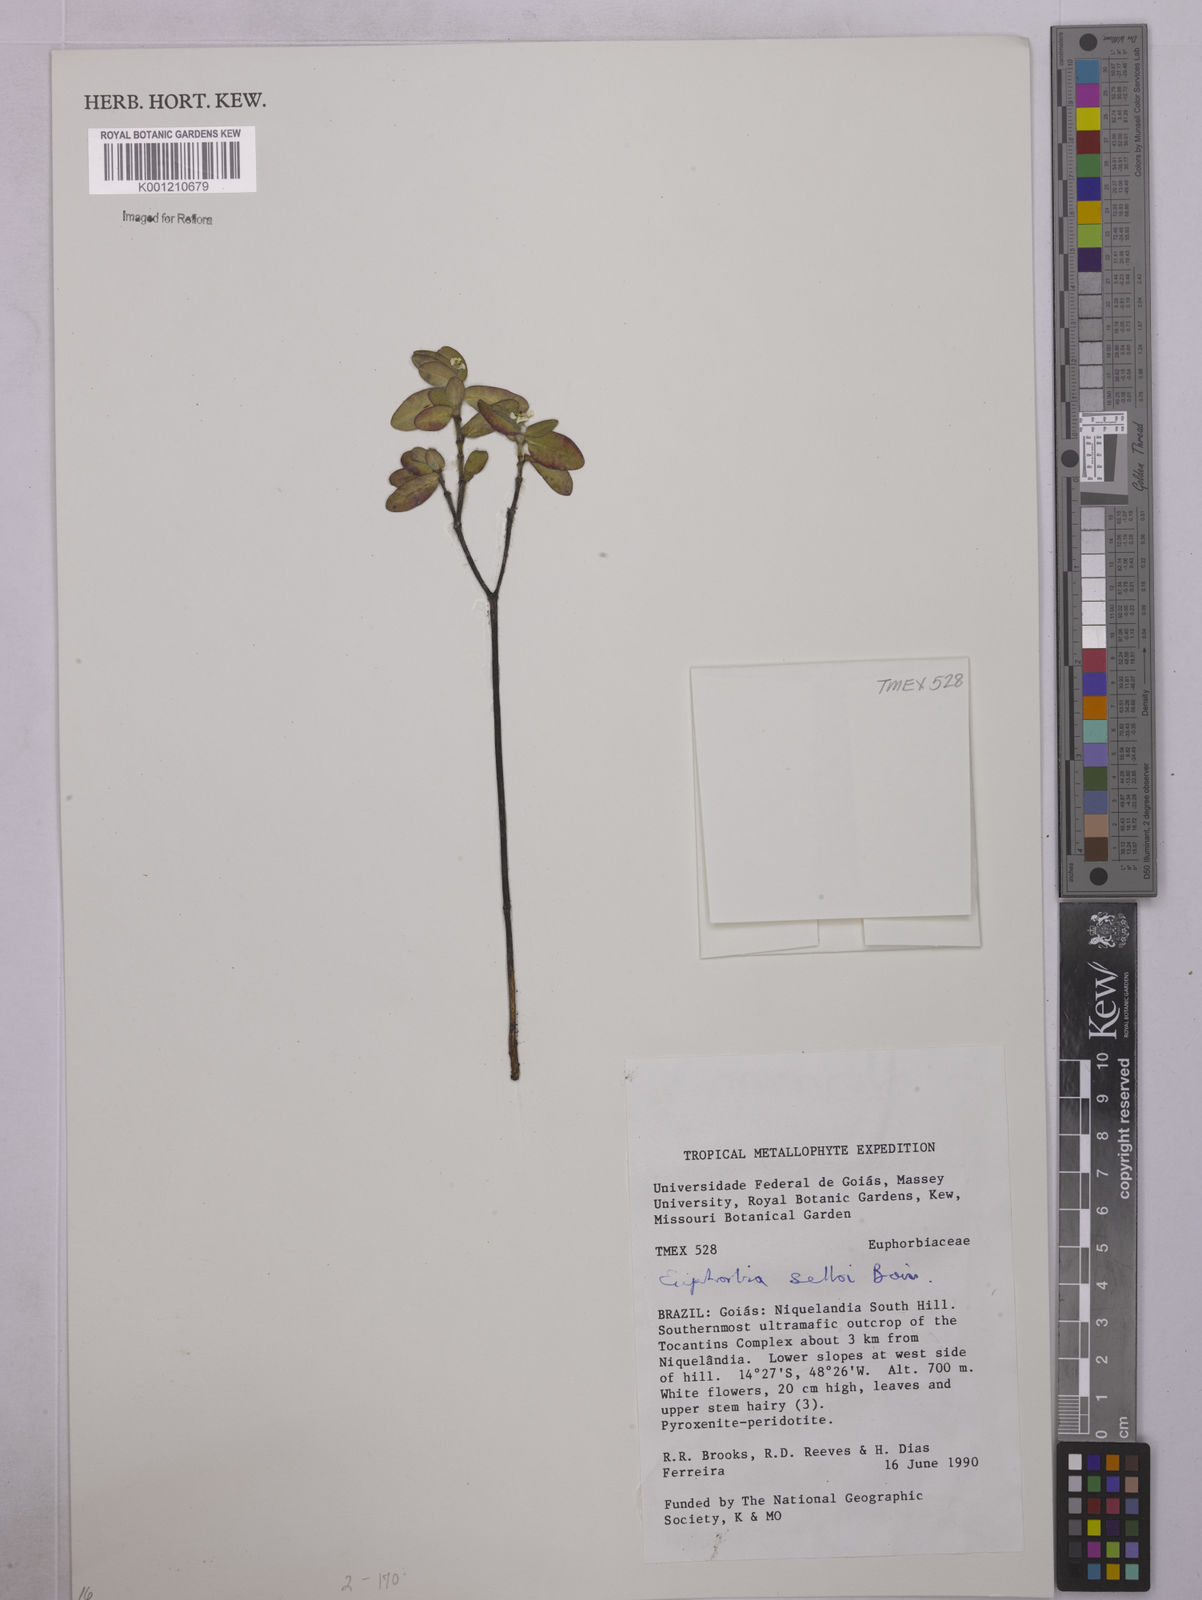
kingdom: Plantae
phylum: Tracheophyta
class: Magnoliopsida
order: Malpighiales
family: Euphorbiaceae
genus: Euphorbia
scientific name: Euphorbia selloi
